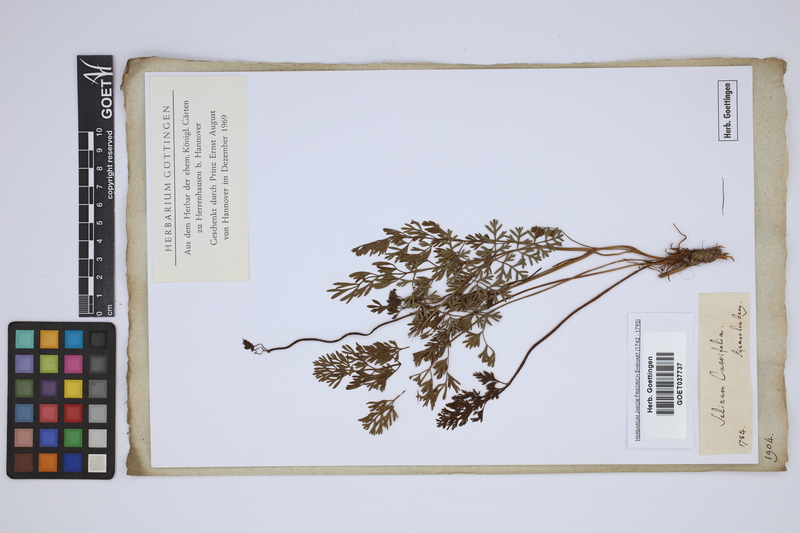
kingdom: Plantae
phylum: Tracheophyta
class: Magnoliopsida
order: Apiales
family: Apiaceae
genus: Selinum
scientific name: Selinum carvifolia
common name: Cambridge milk-parsley
